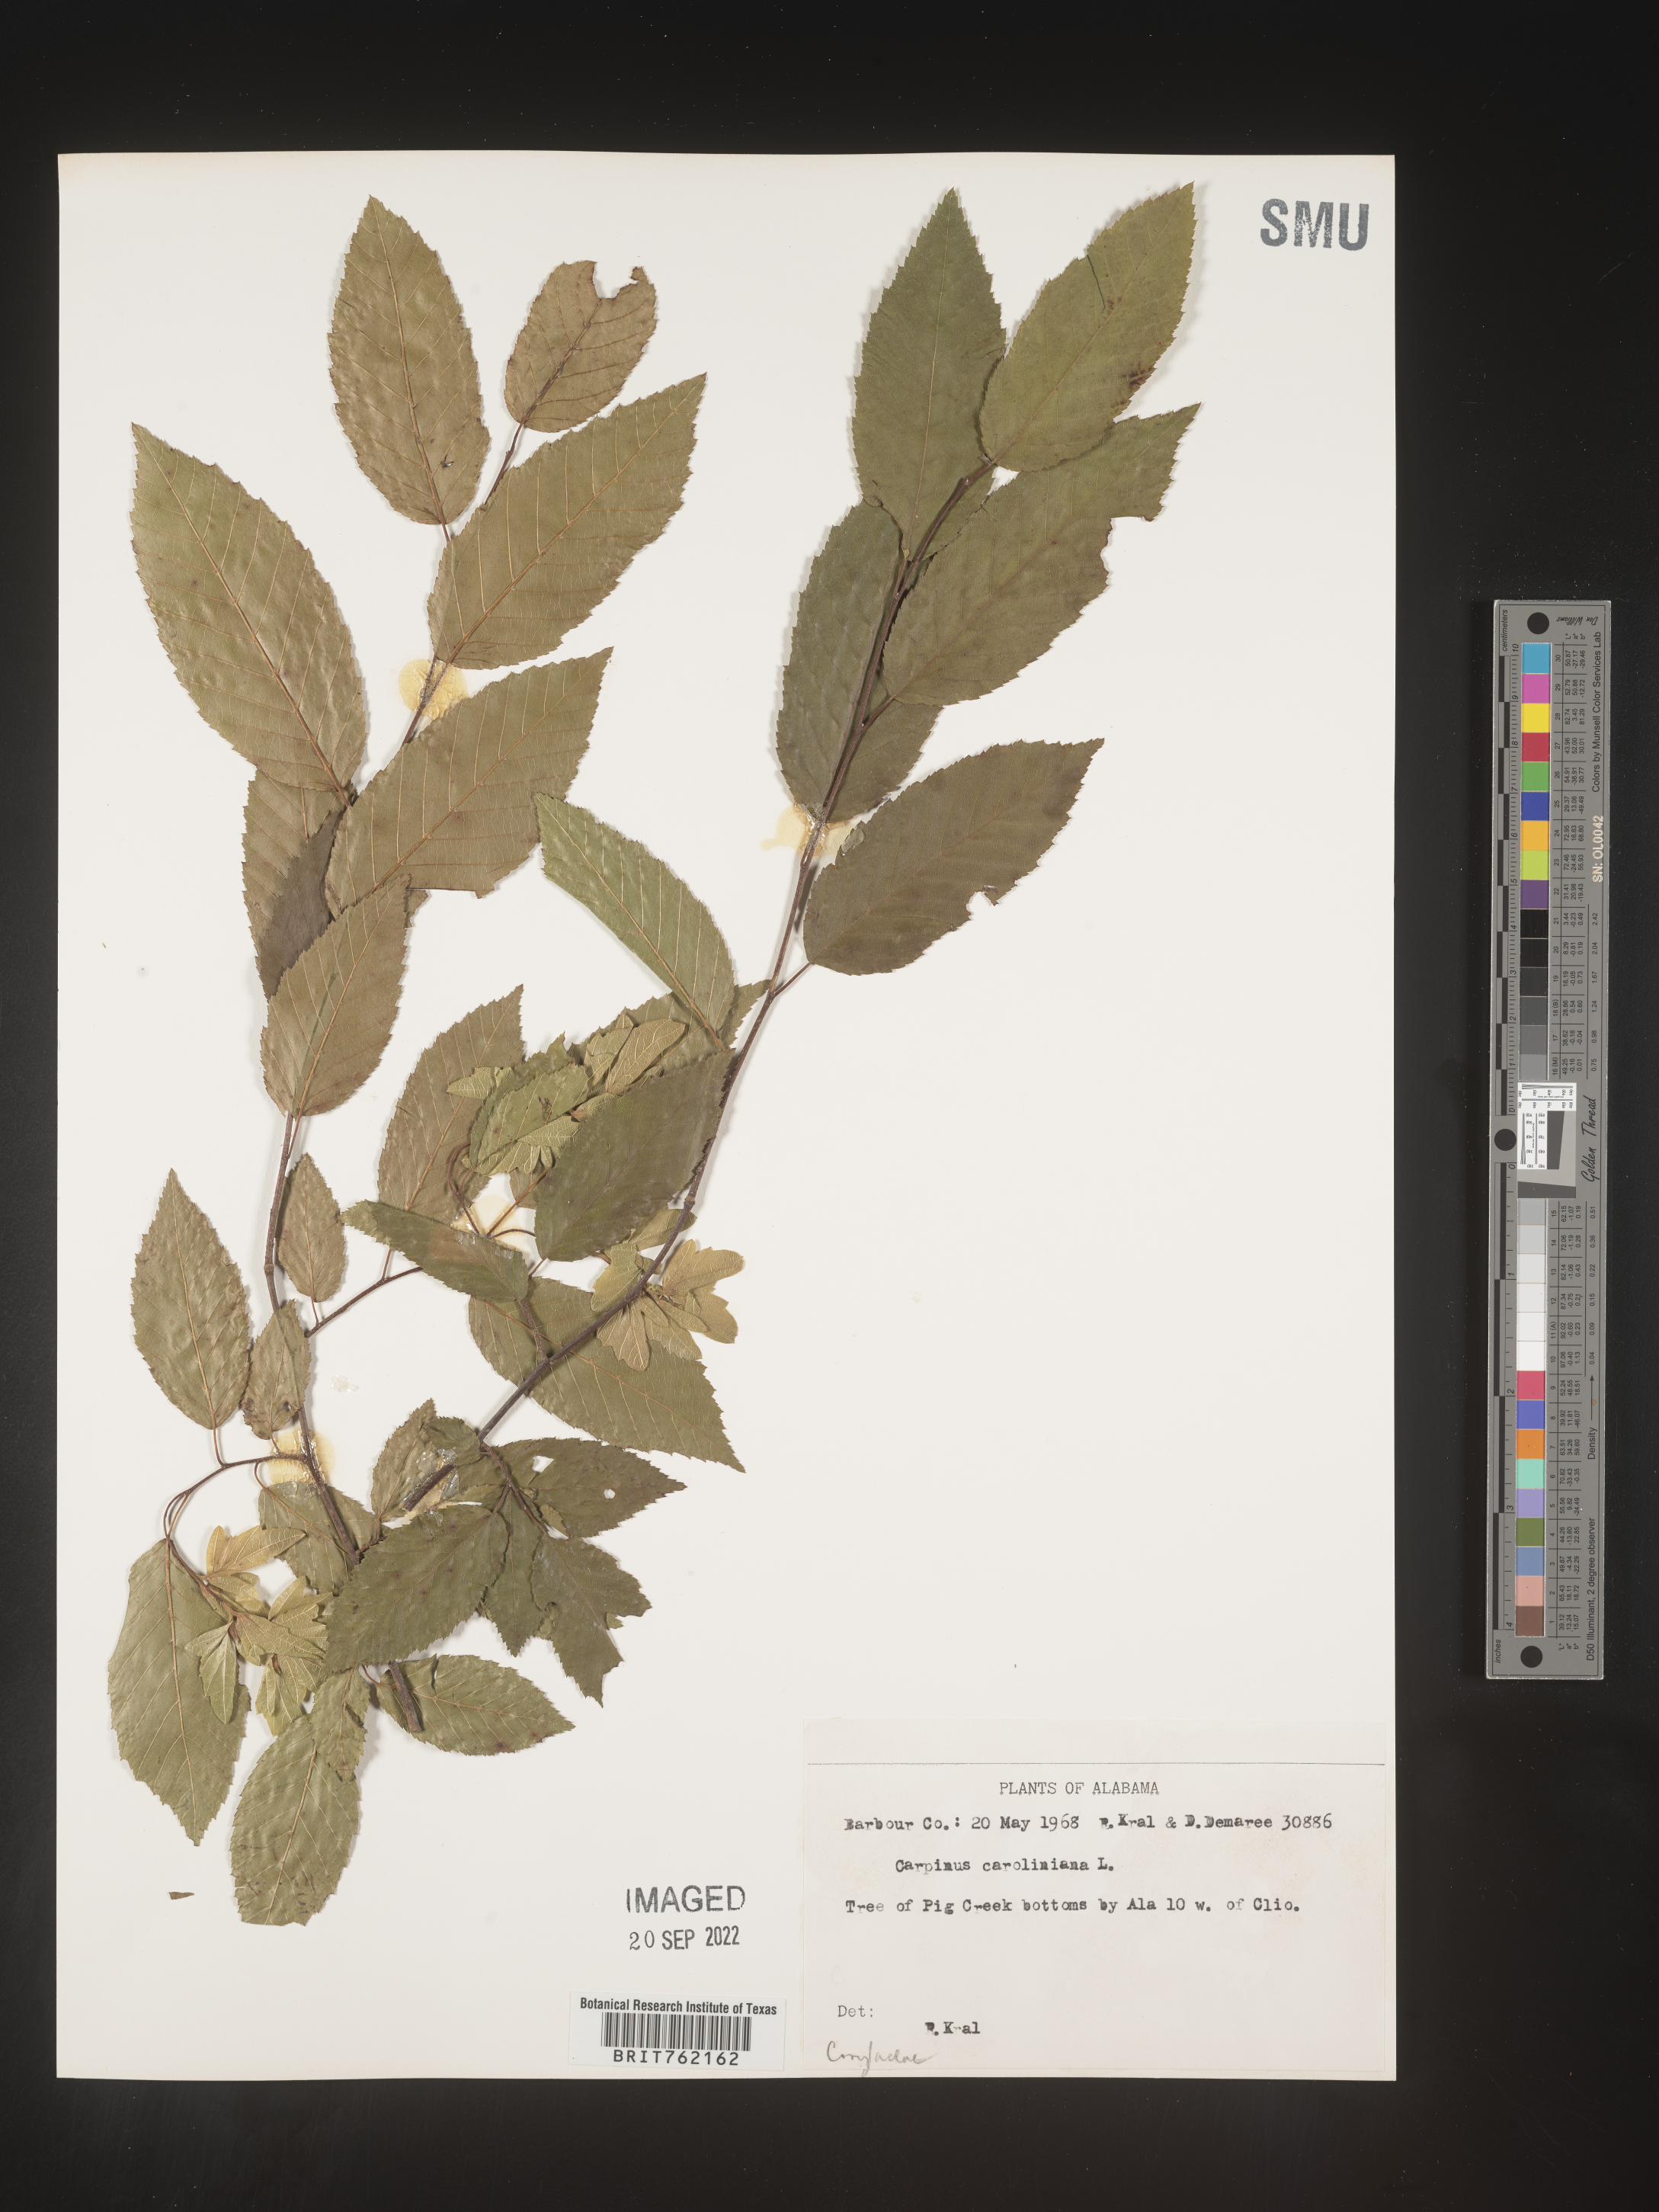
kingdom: Plantae
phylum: Tracheophyta
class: Magnoliopsida
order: Fagales
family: Betulaceae
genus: Carpinus
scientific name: Carpinus caroliniana
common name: American hornbeam
